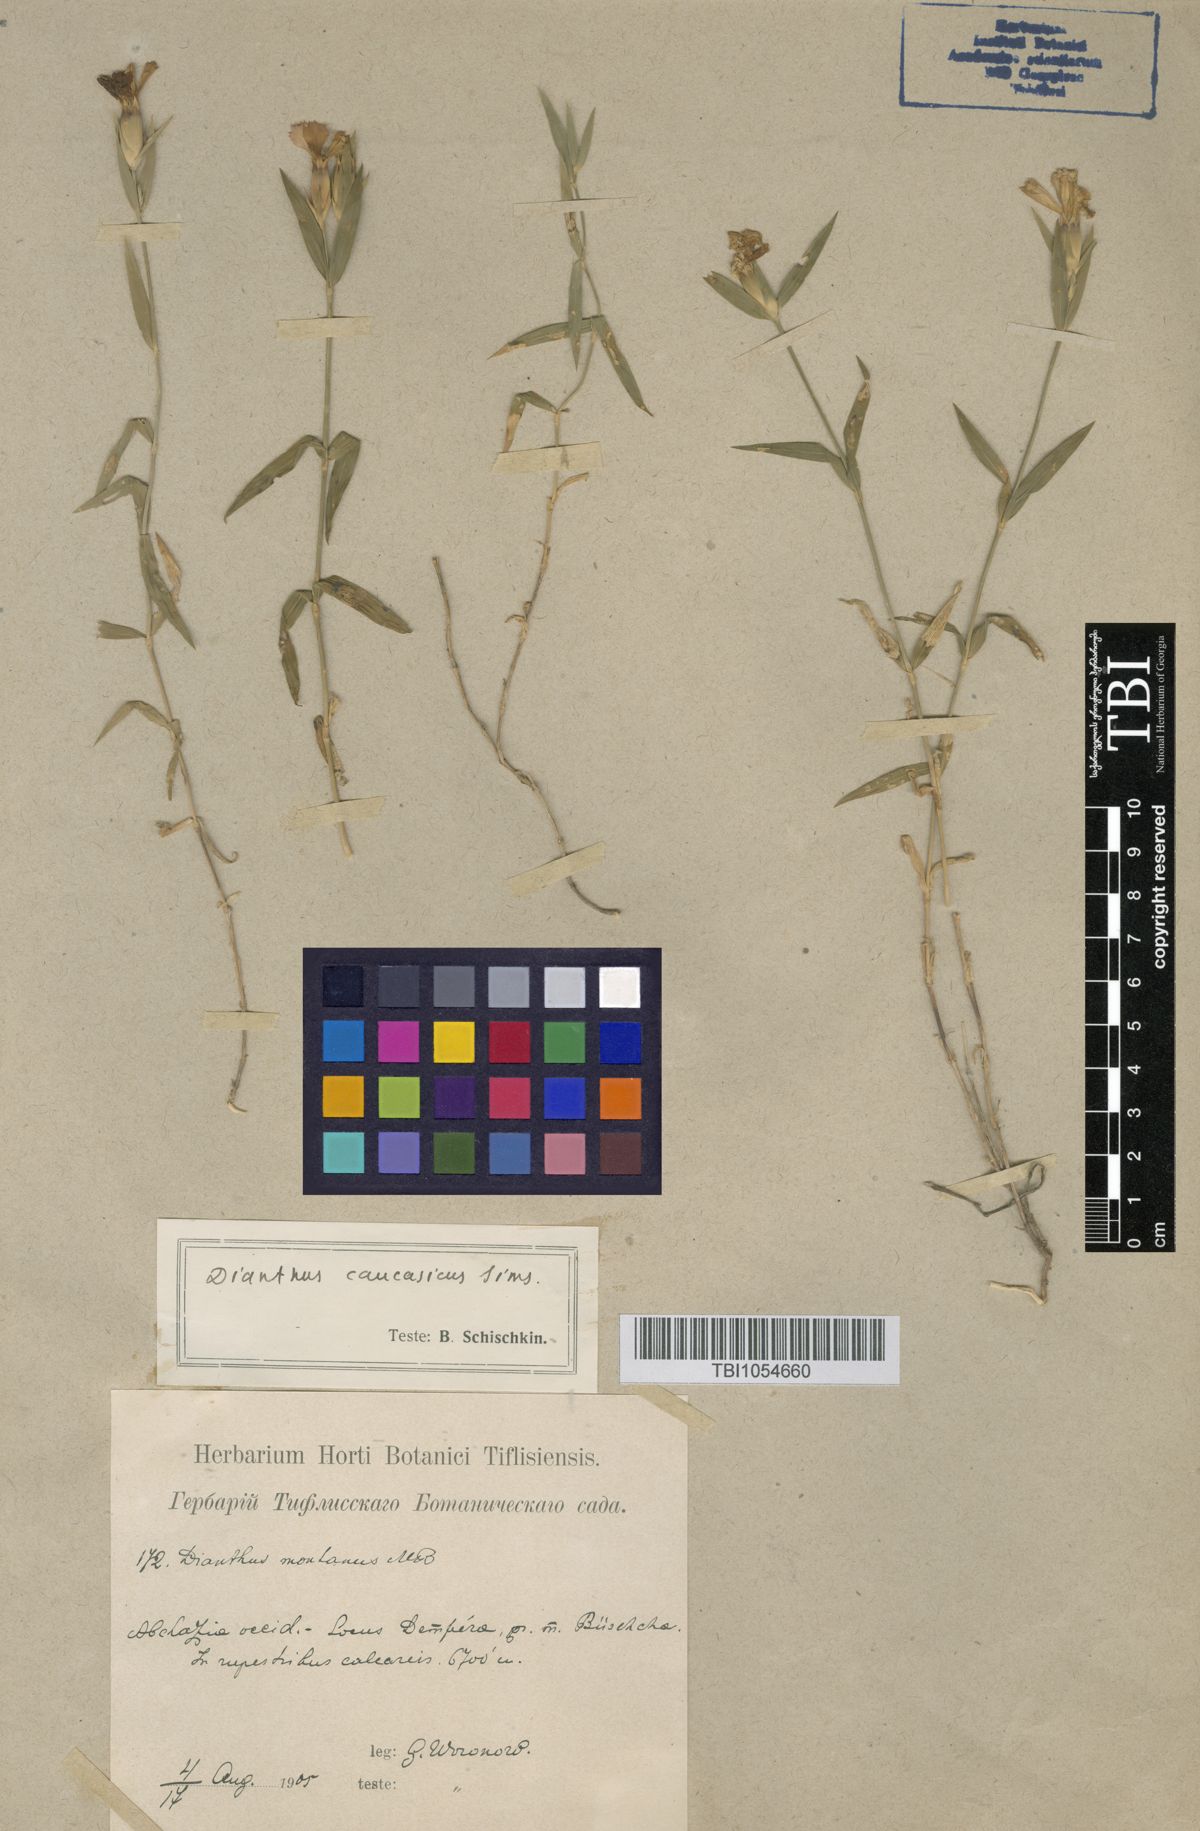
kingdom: Plantae
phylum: Tracheophyta
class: Magnoliopsida
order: Caryophyllales
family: Caryophyllaceae
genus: Dianthus
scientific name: Dianthus kusnezovii
